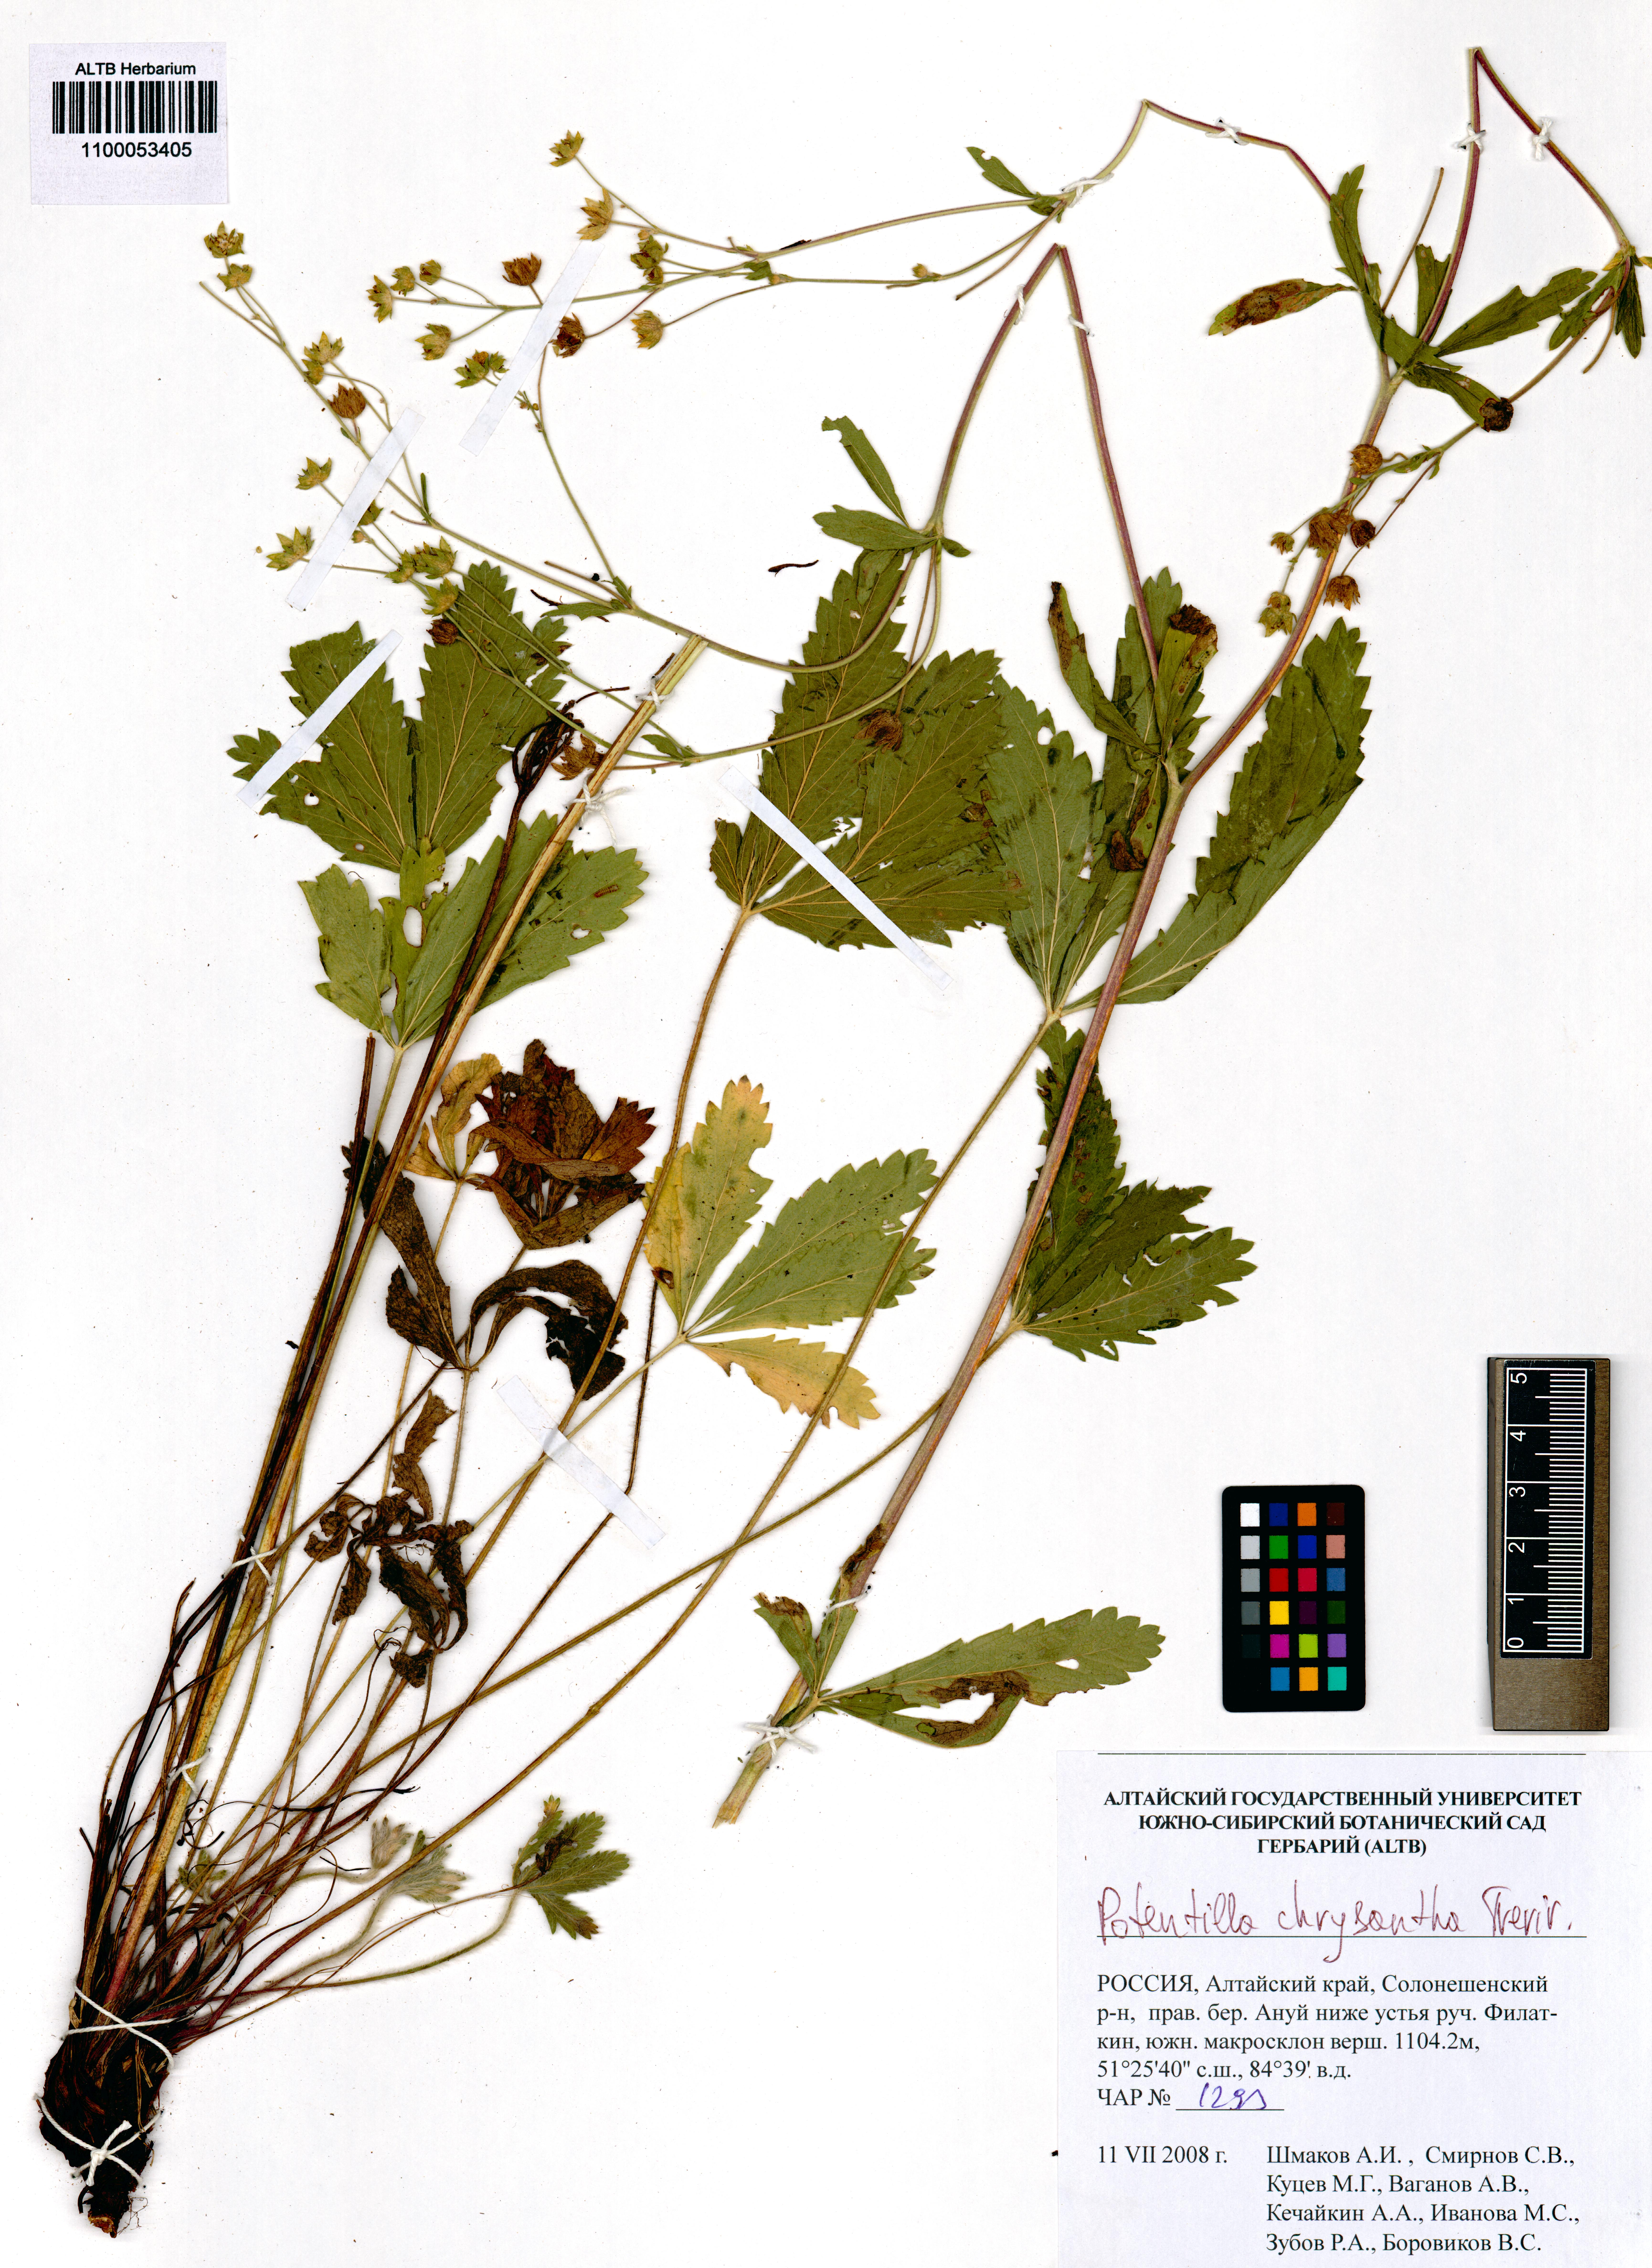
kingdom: Plantae
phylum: Tracheophyta
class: Magnoliopsida
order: Rosales
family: Rosaceae
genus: Potentilla
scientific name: Potentilla chrysantha
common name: Thuringian cinquefoil
